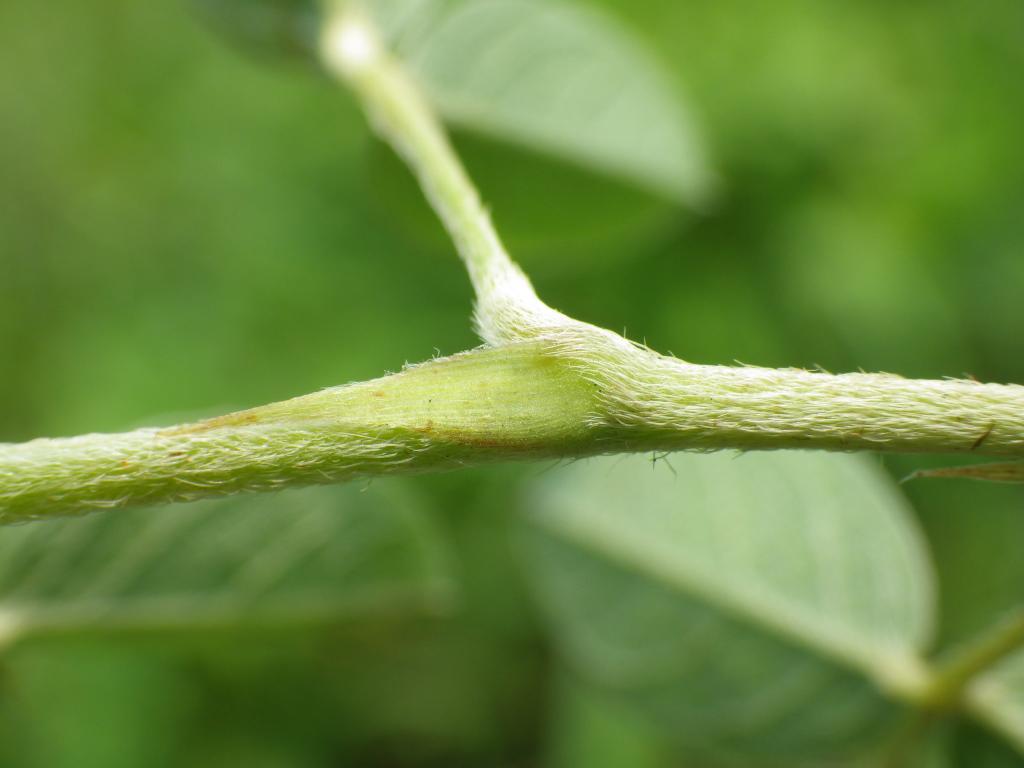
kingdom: Plantae
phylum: Tracheophyta
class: Magnoliopsida
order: Fabales
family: Fabaceae
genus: Grona
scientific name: Grona heterocarpos
